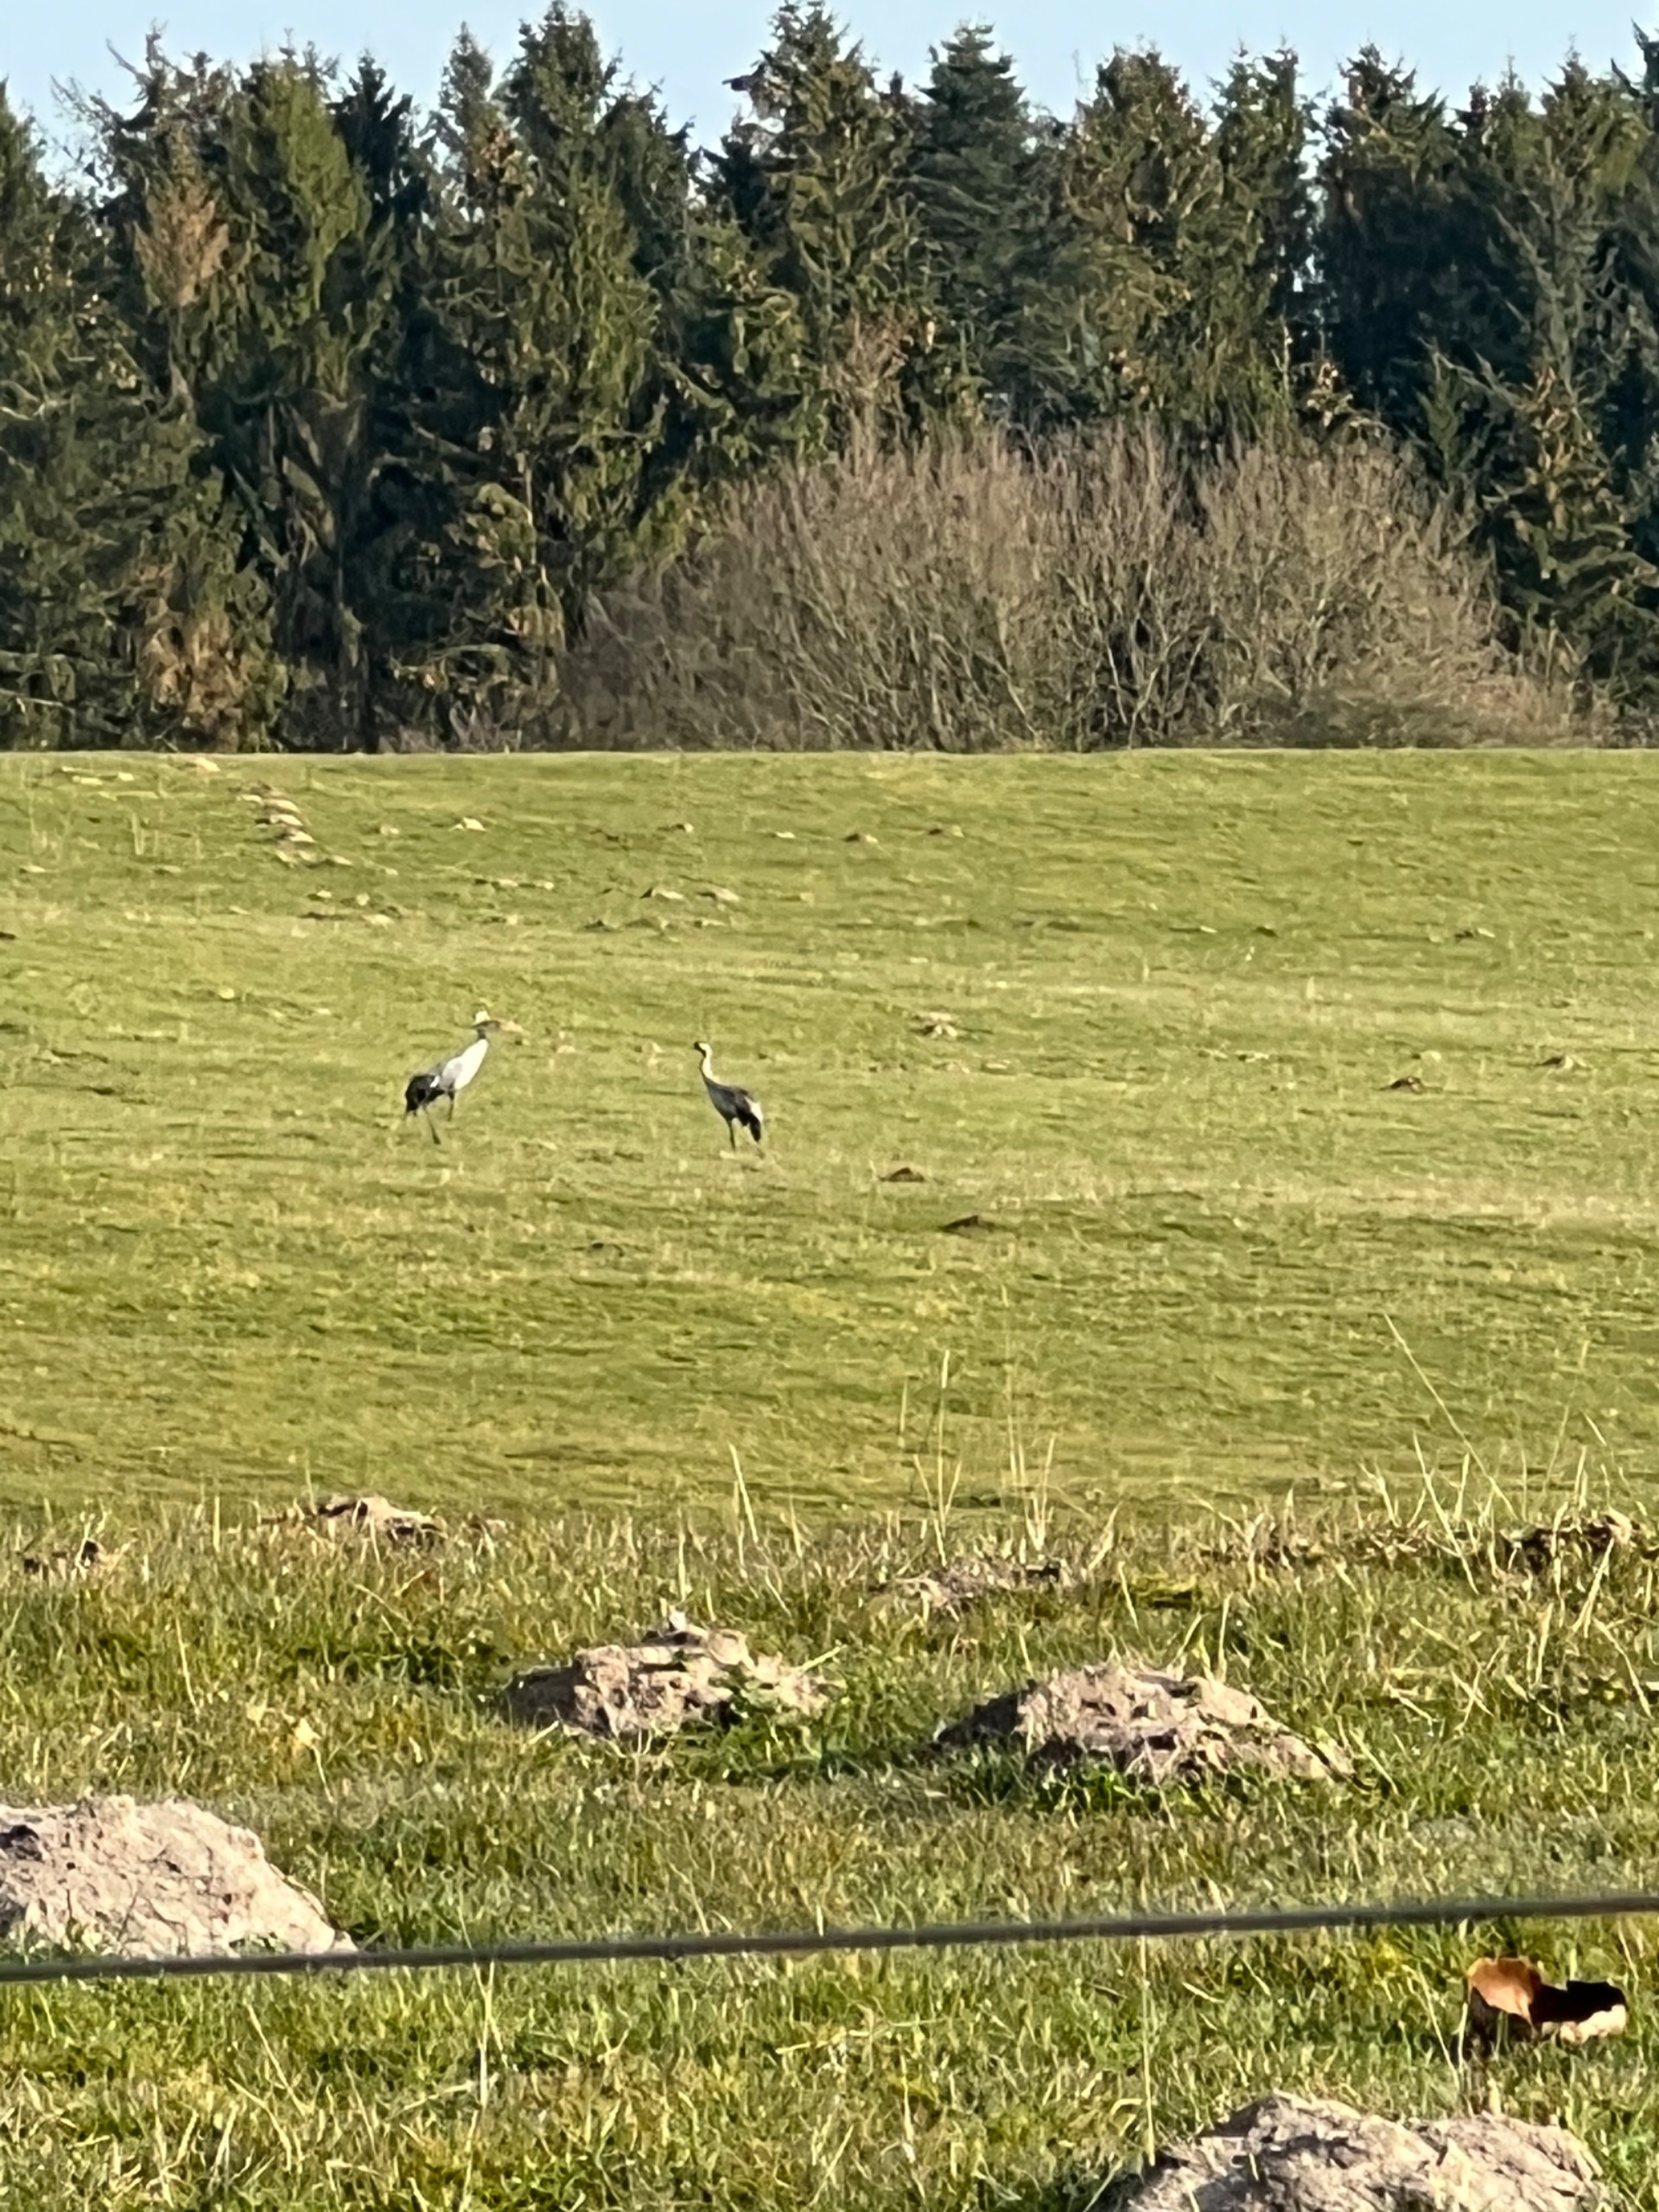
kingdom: Animalia
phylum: Chordata
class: Aves
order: Gruiformes
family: Gruidae
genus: Grus
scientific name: Grus grus
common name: Trane
